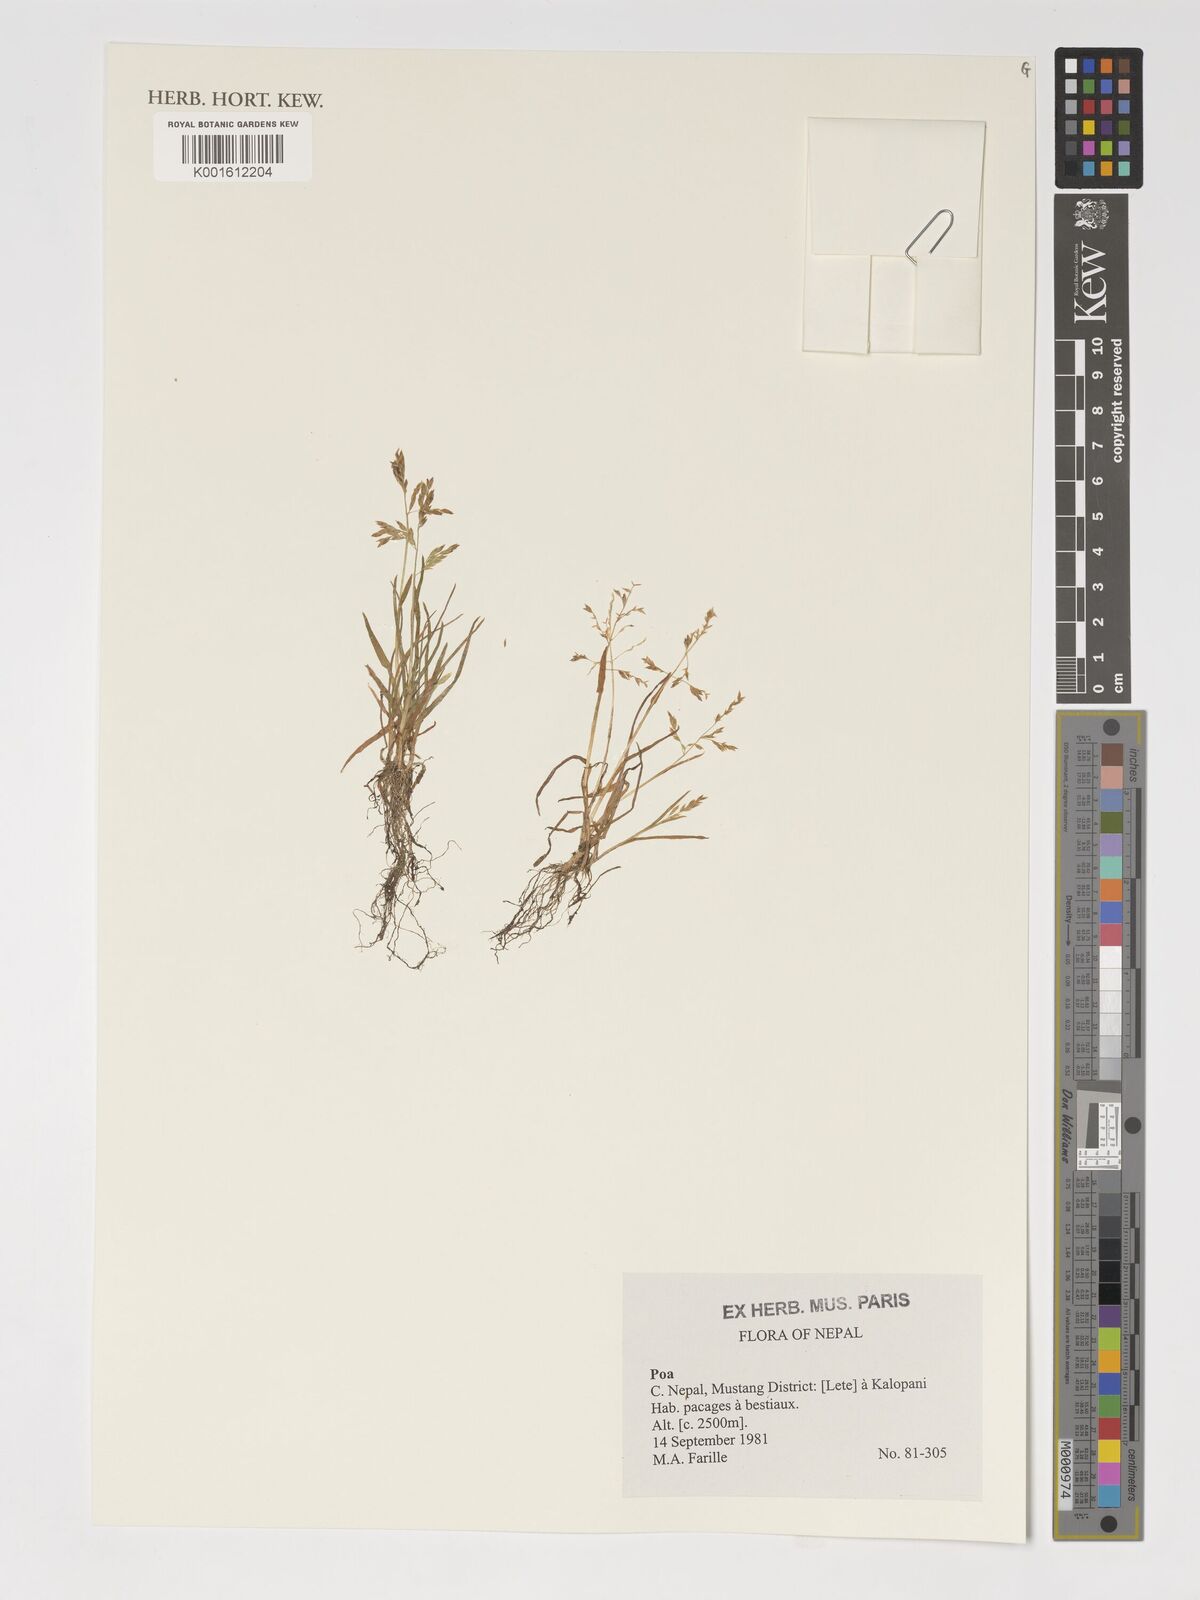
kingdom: Plantae
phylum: Tracheophyta
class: Liliopsida
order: Poales
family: Poaceae
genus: Poa
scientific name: Poa
